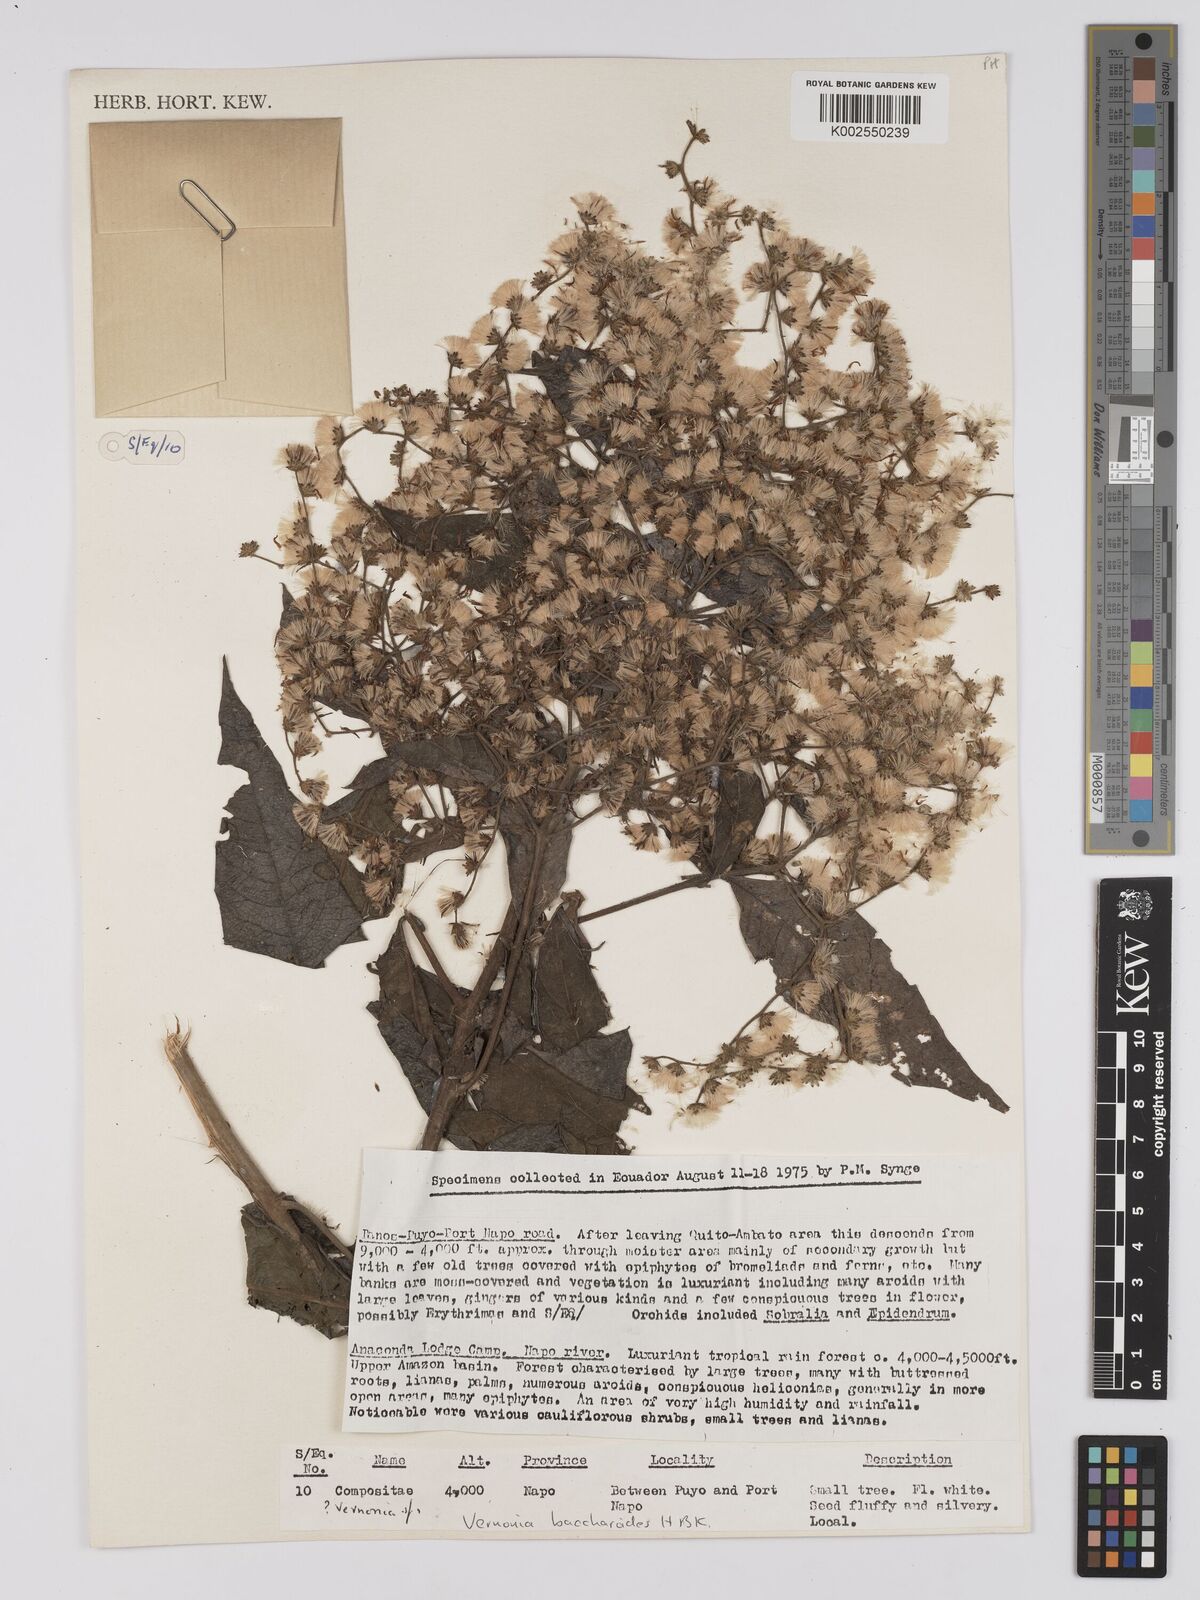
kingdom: Plantae
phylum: Tracheophyta
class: Magnoliopsida
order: Asterales
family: Asteraceae
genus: Vernonanthura
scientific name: Vernonanthura patens
